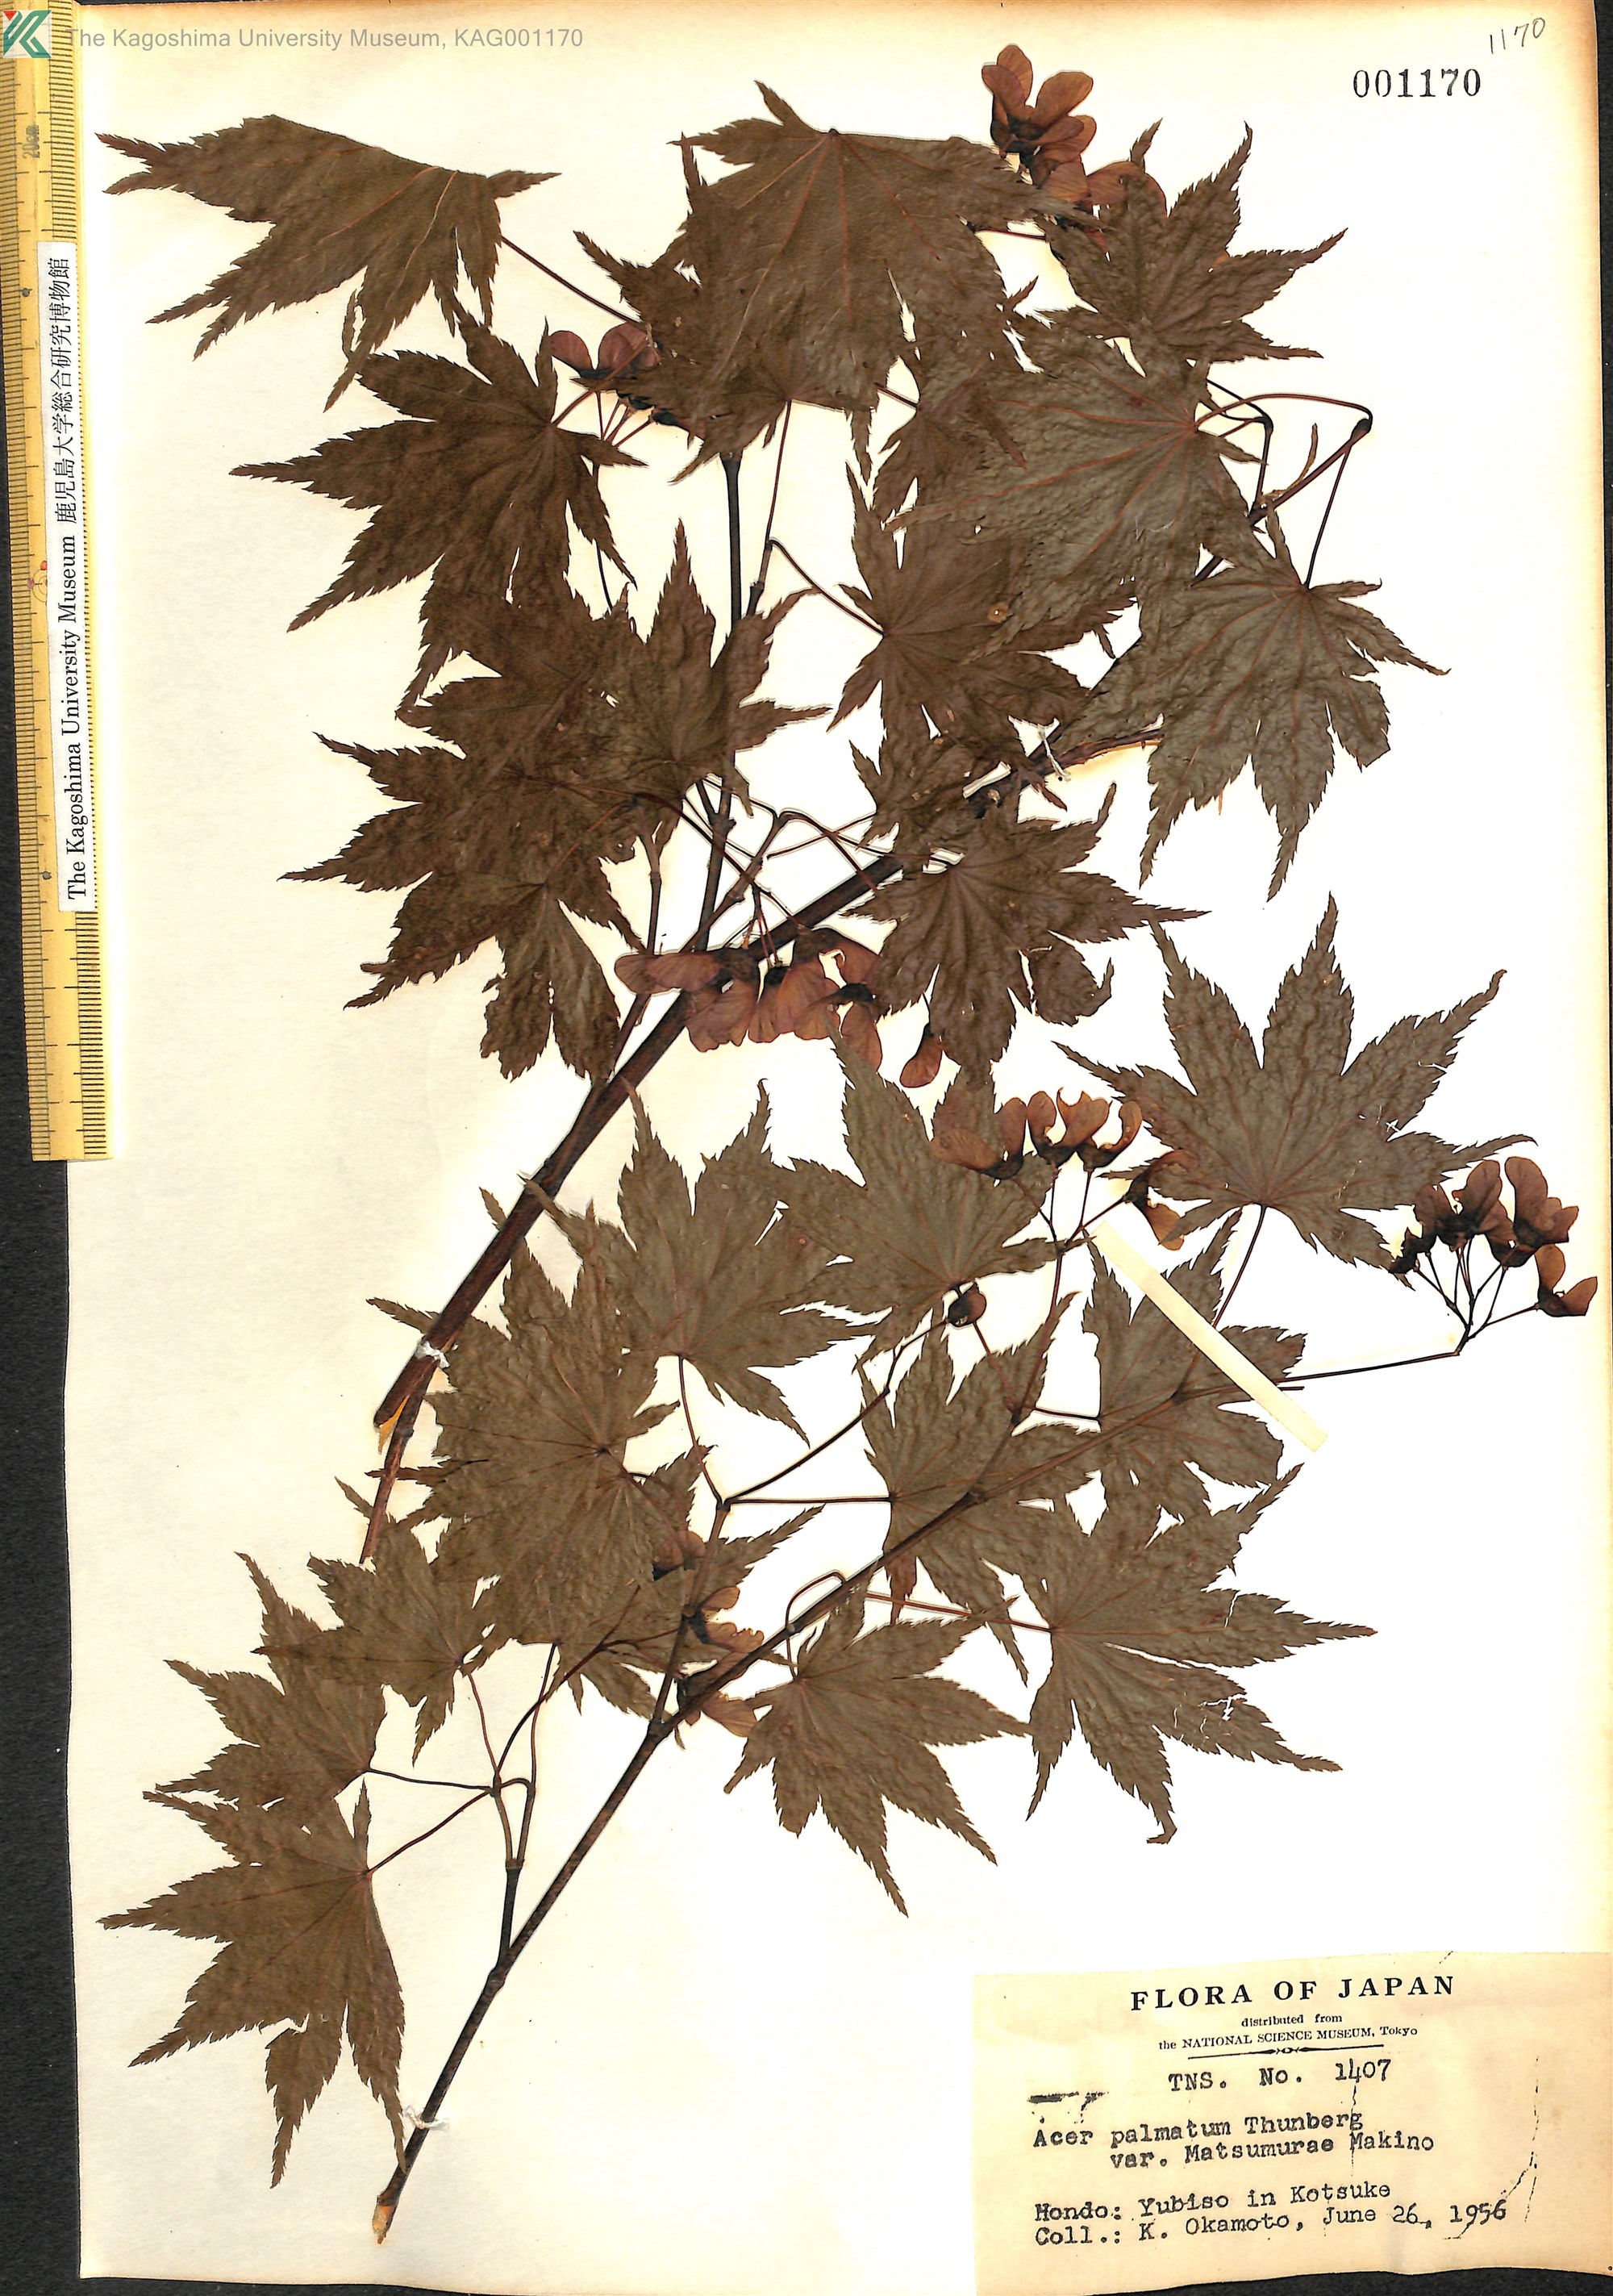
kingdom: Plantae
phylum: Tracheophyta
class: Magnoliopsida
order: Sapindales
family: Sapindaceae
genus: Acer
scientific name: Acer palmatum
